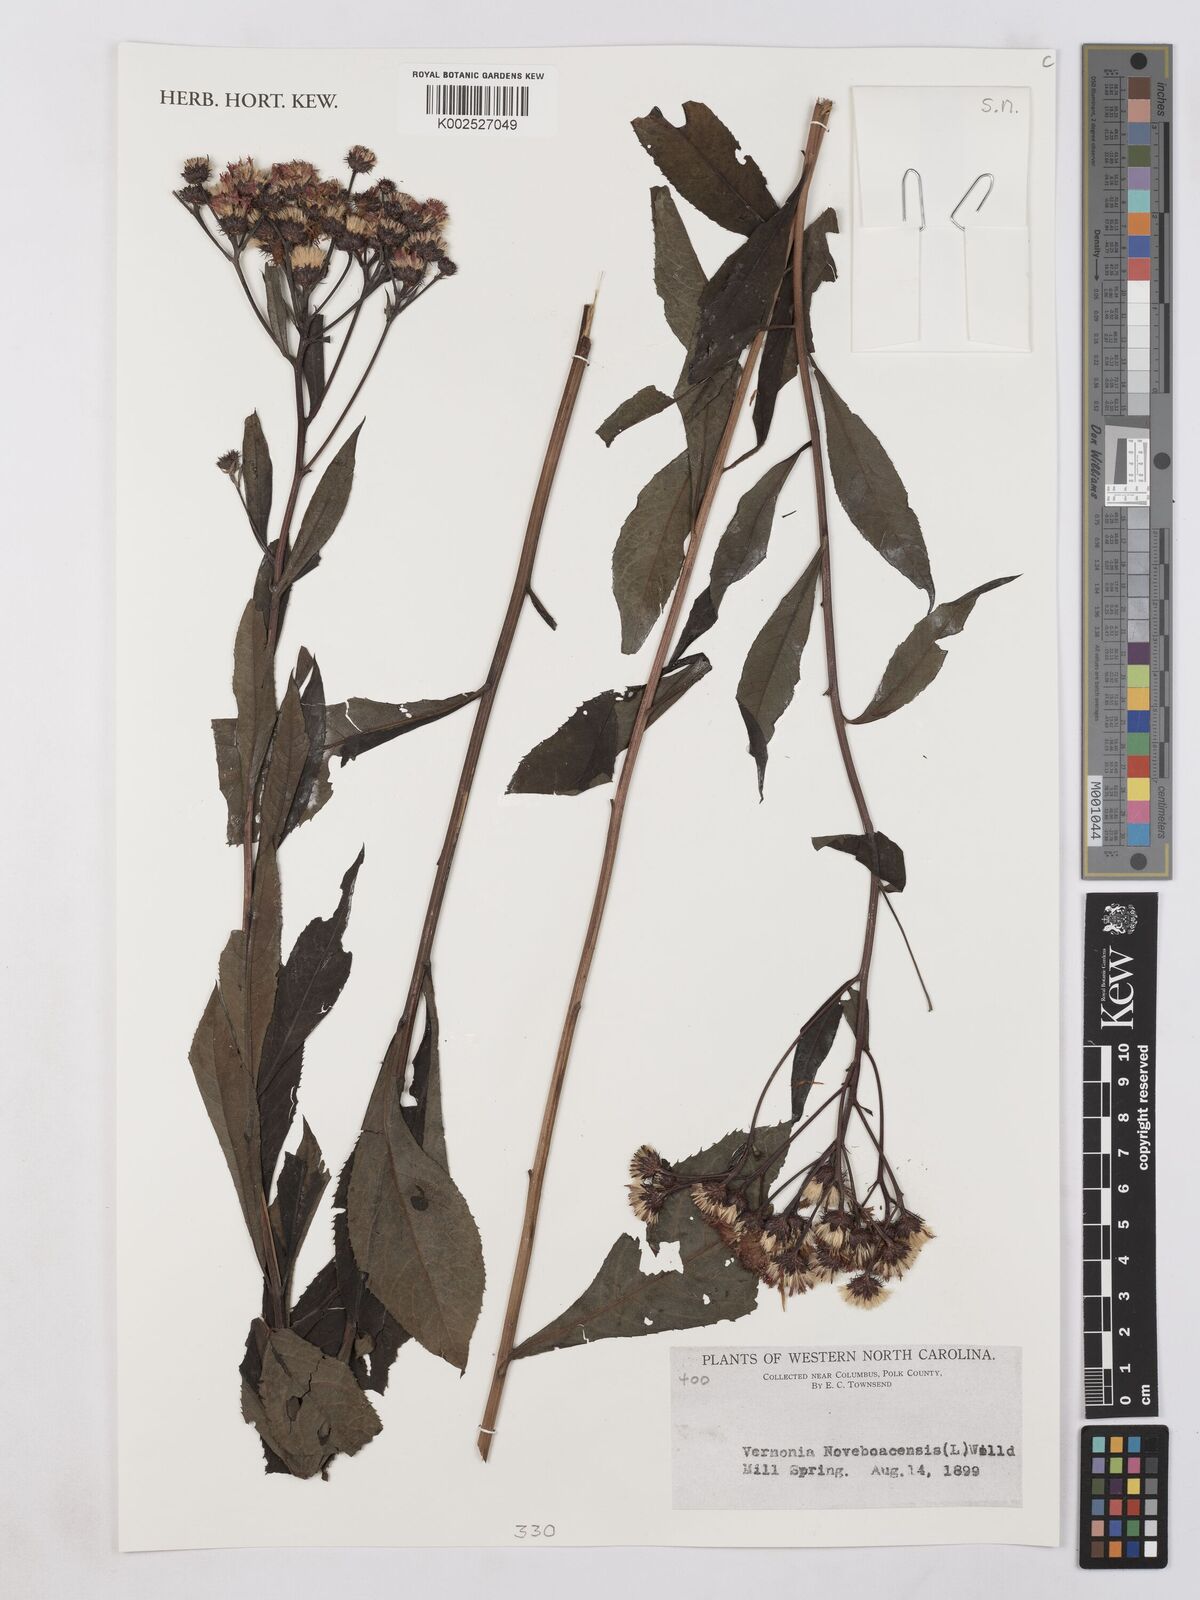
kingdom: Plantae
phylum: Tracheophyta
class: Magnoliopsida
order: Asterales
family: Asteraceae
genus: Vernonia
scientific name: Vernonia noveboracensis
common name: New york ironweed
